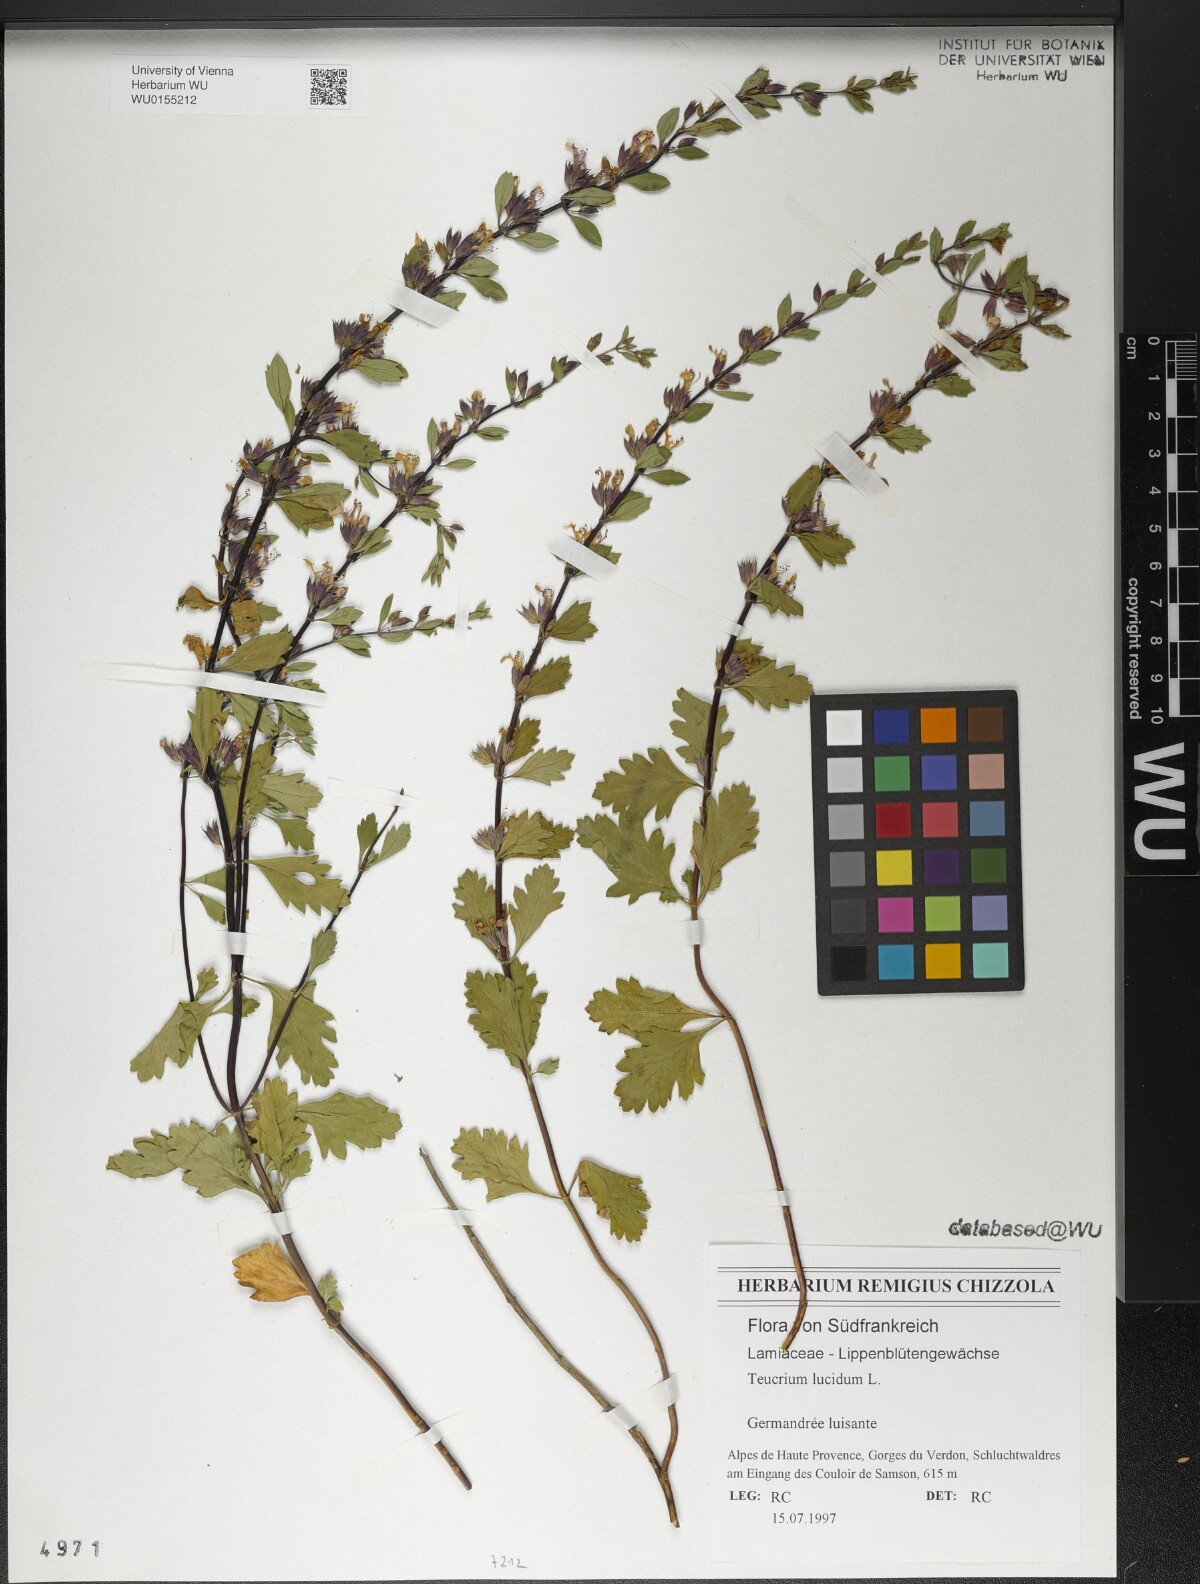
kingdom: Plantae
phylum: Tracheophyta
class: Magnoliopsida
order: Lamiales
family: Lamiaceae
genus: Teucrium
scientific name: Teucrium lucidum
